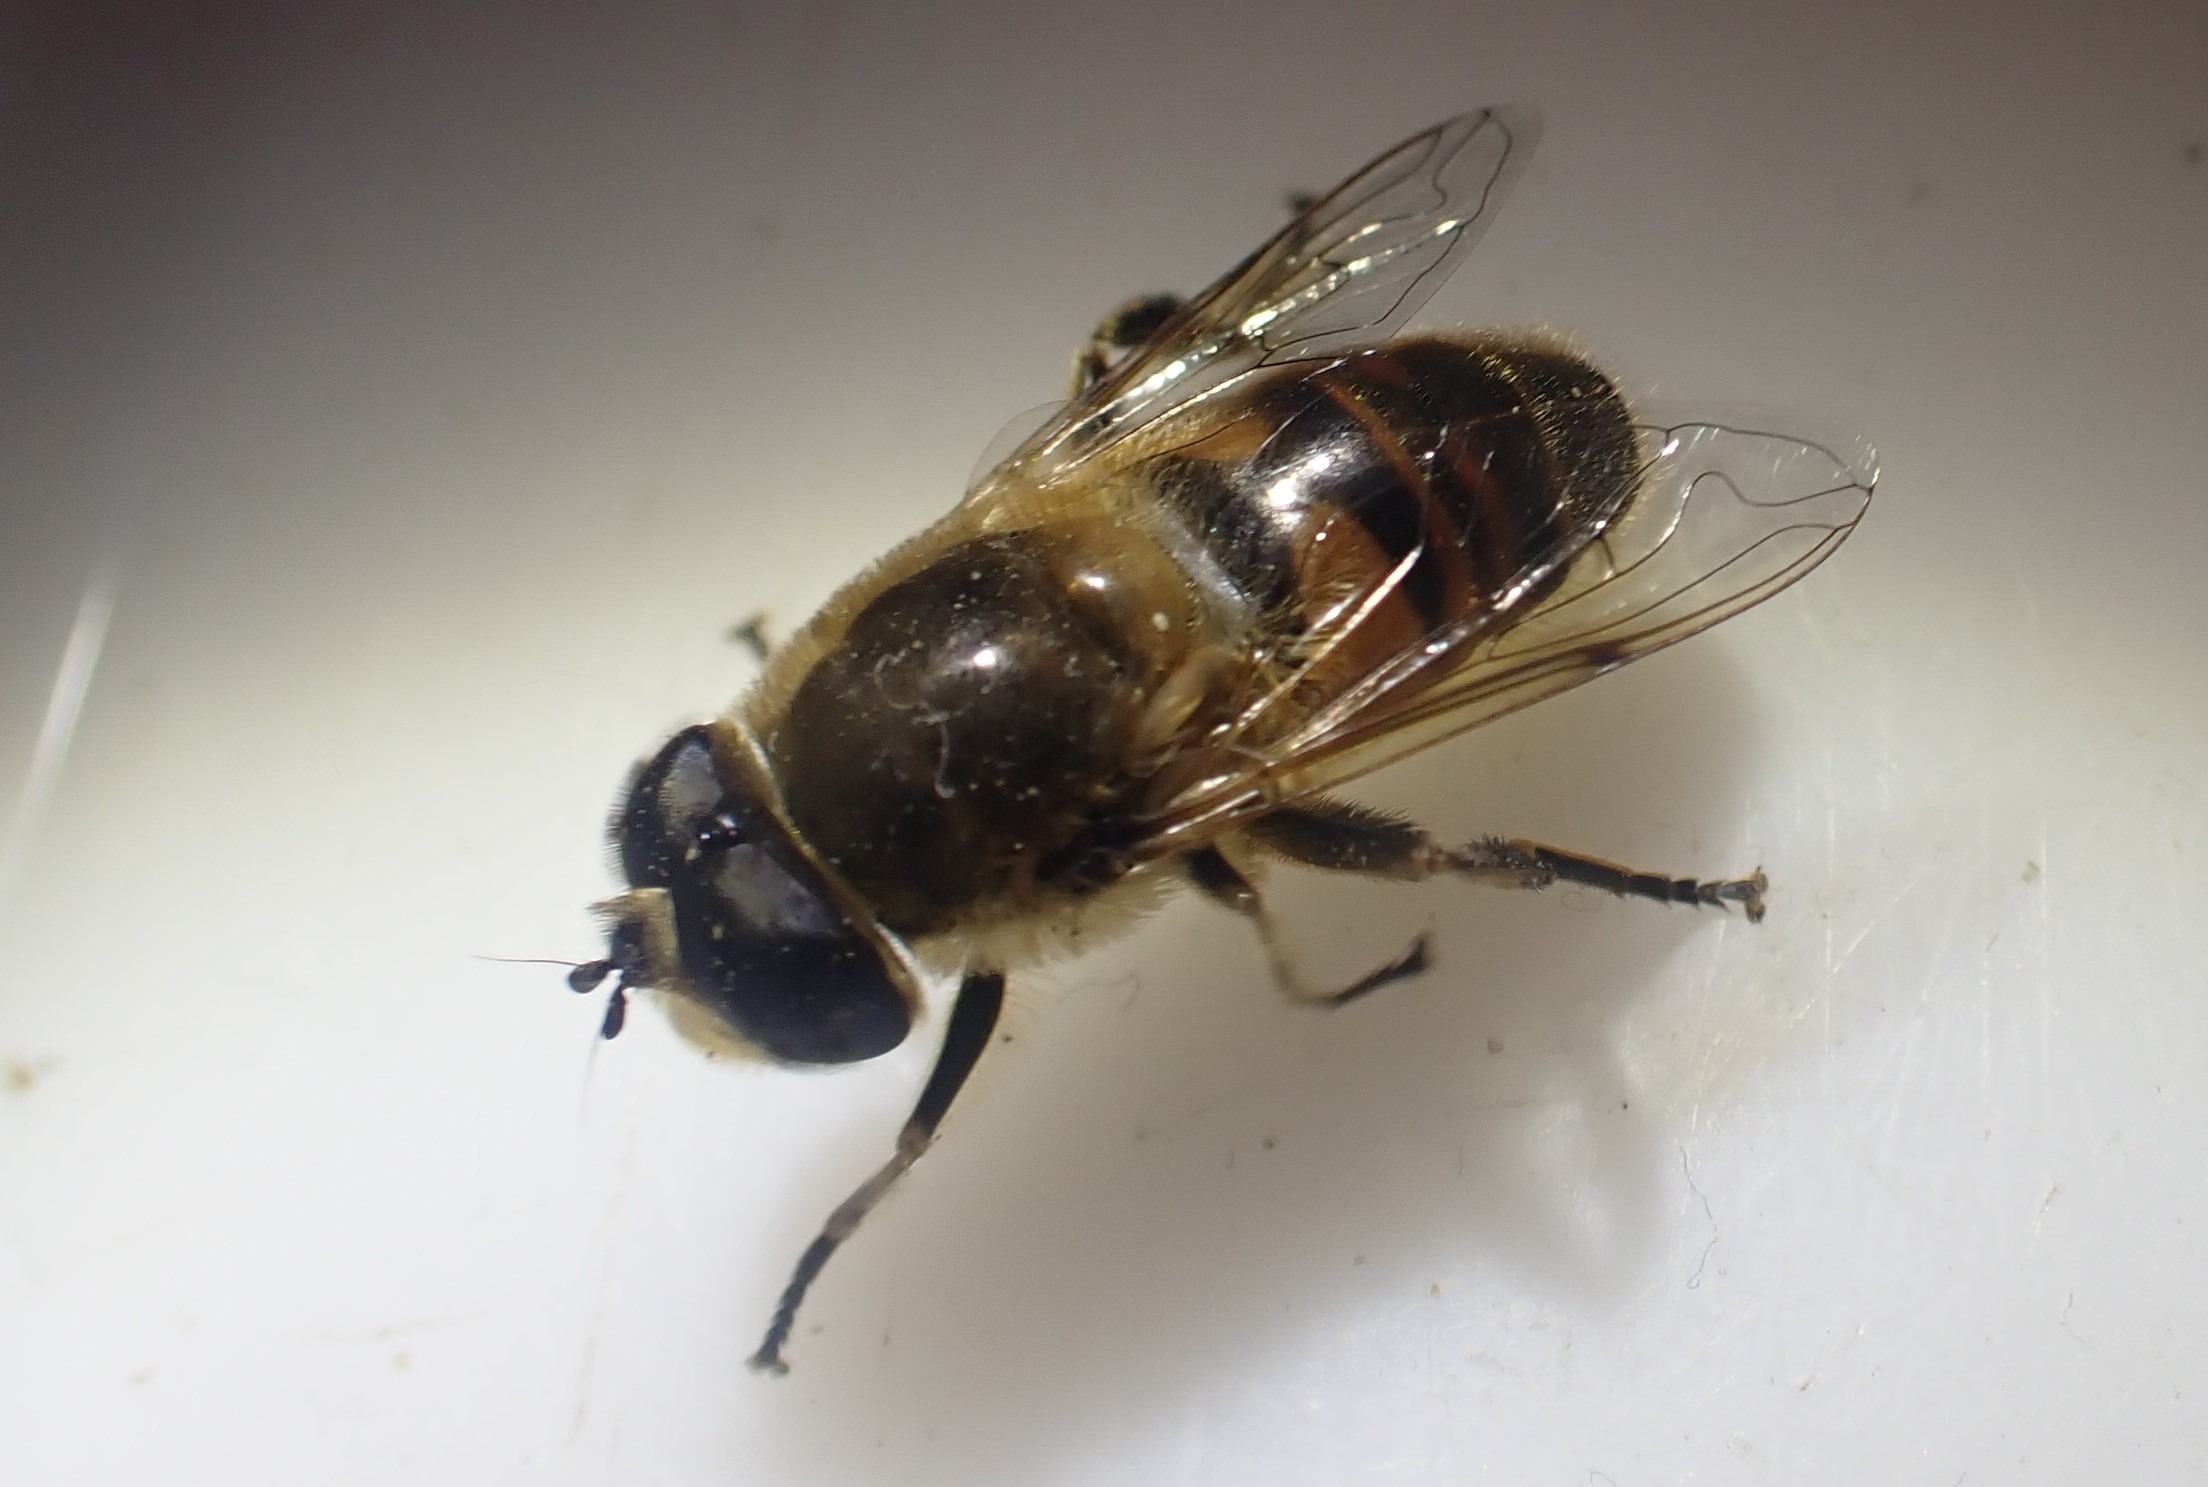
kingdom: Animalia
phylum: Arthropoda
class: Insecta
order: Diptera
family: Syrphidae
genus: Eristalis
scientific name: Eristalis tenax
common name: Droneflue
